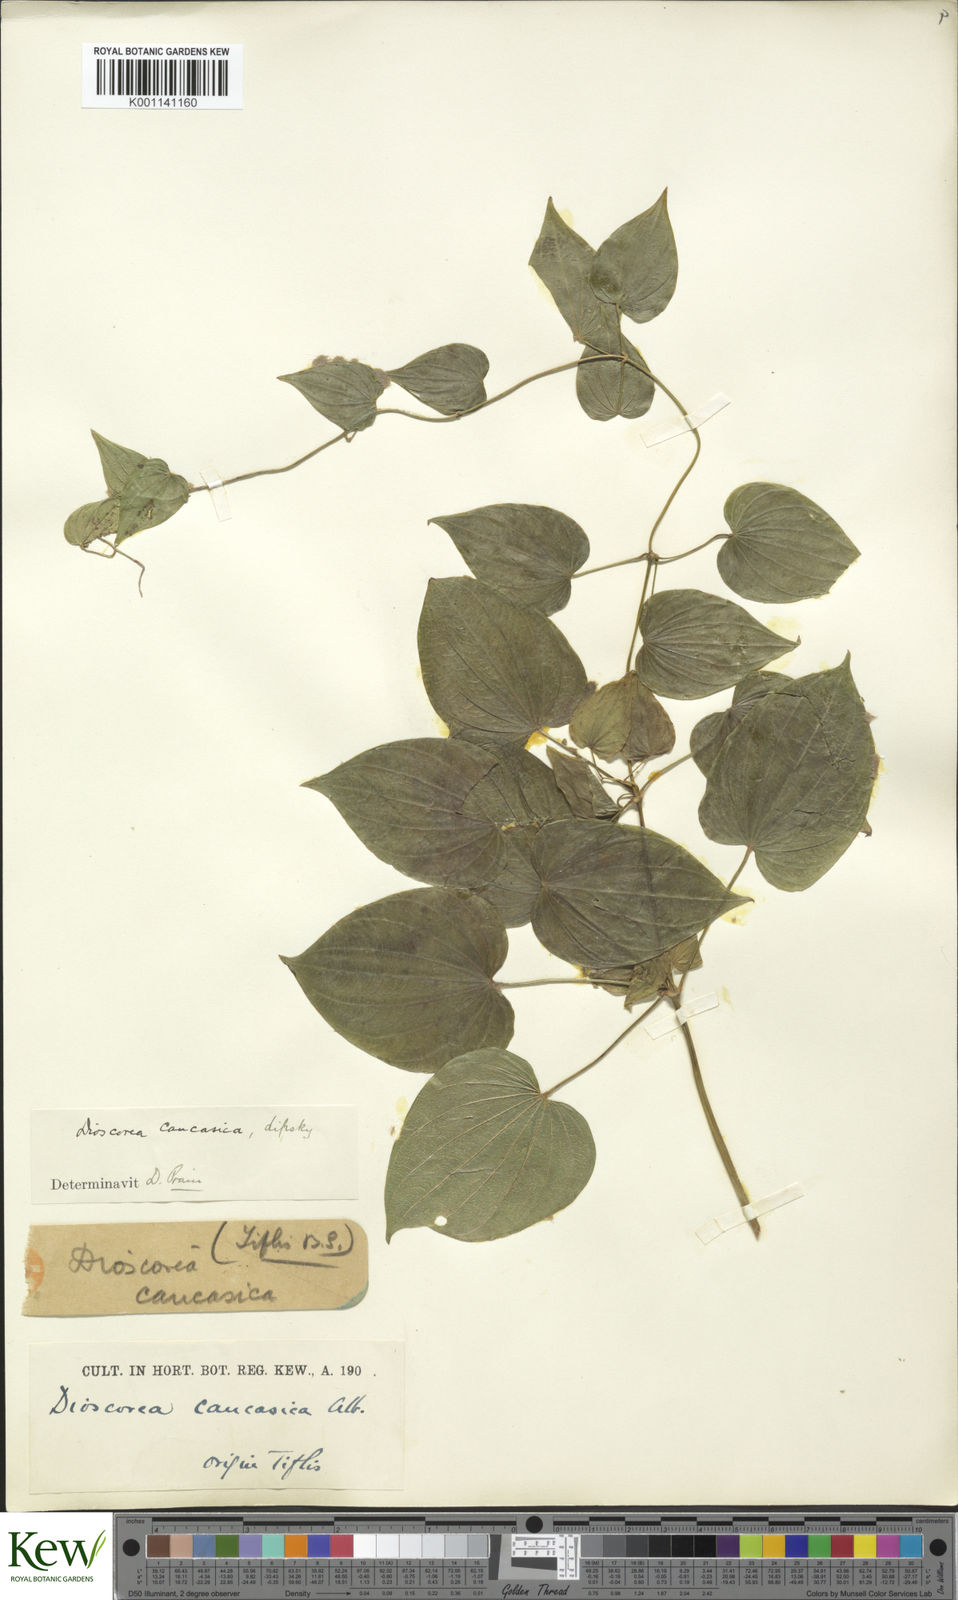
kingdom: Plantae
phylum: Tracheophyta
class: Liliopsida
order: Dioscoreales
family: Dioscoreaceae
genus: Dioscorea
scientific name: Dioscorea caucasica
